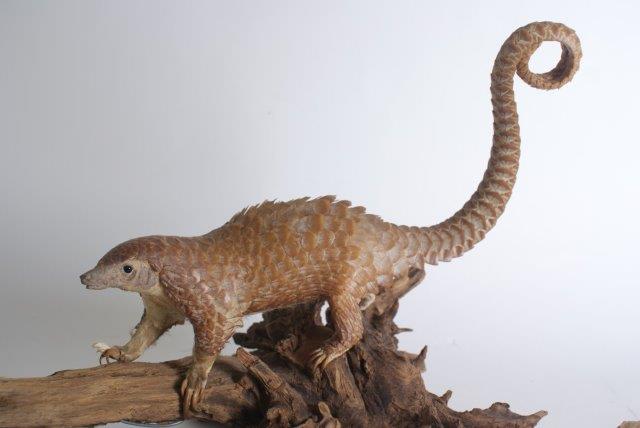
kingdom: Animalia
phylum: Chordata
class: Mammalia
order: Pholidota
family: Manidae
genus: Manis
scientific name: Manis
